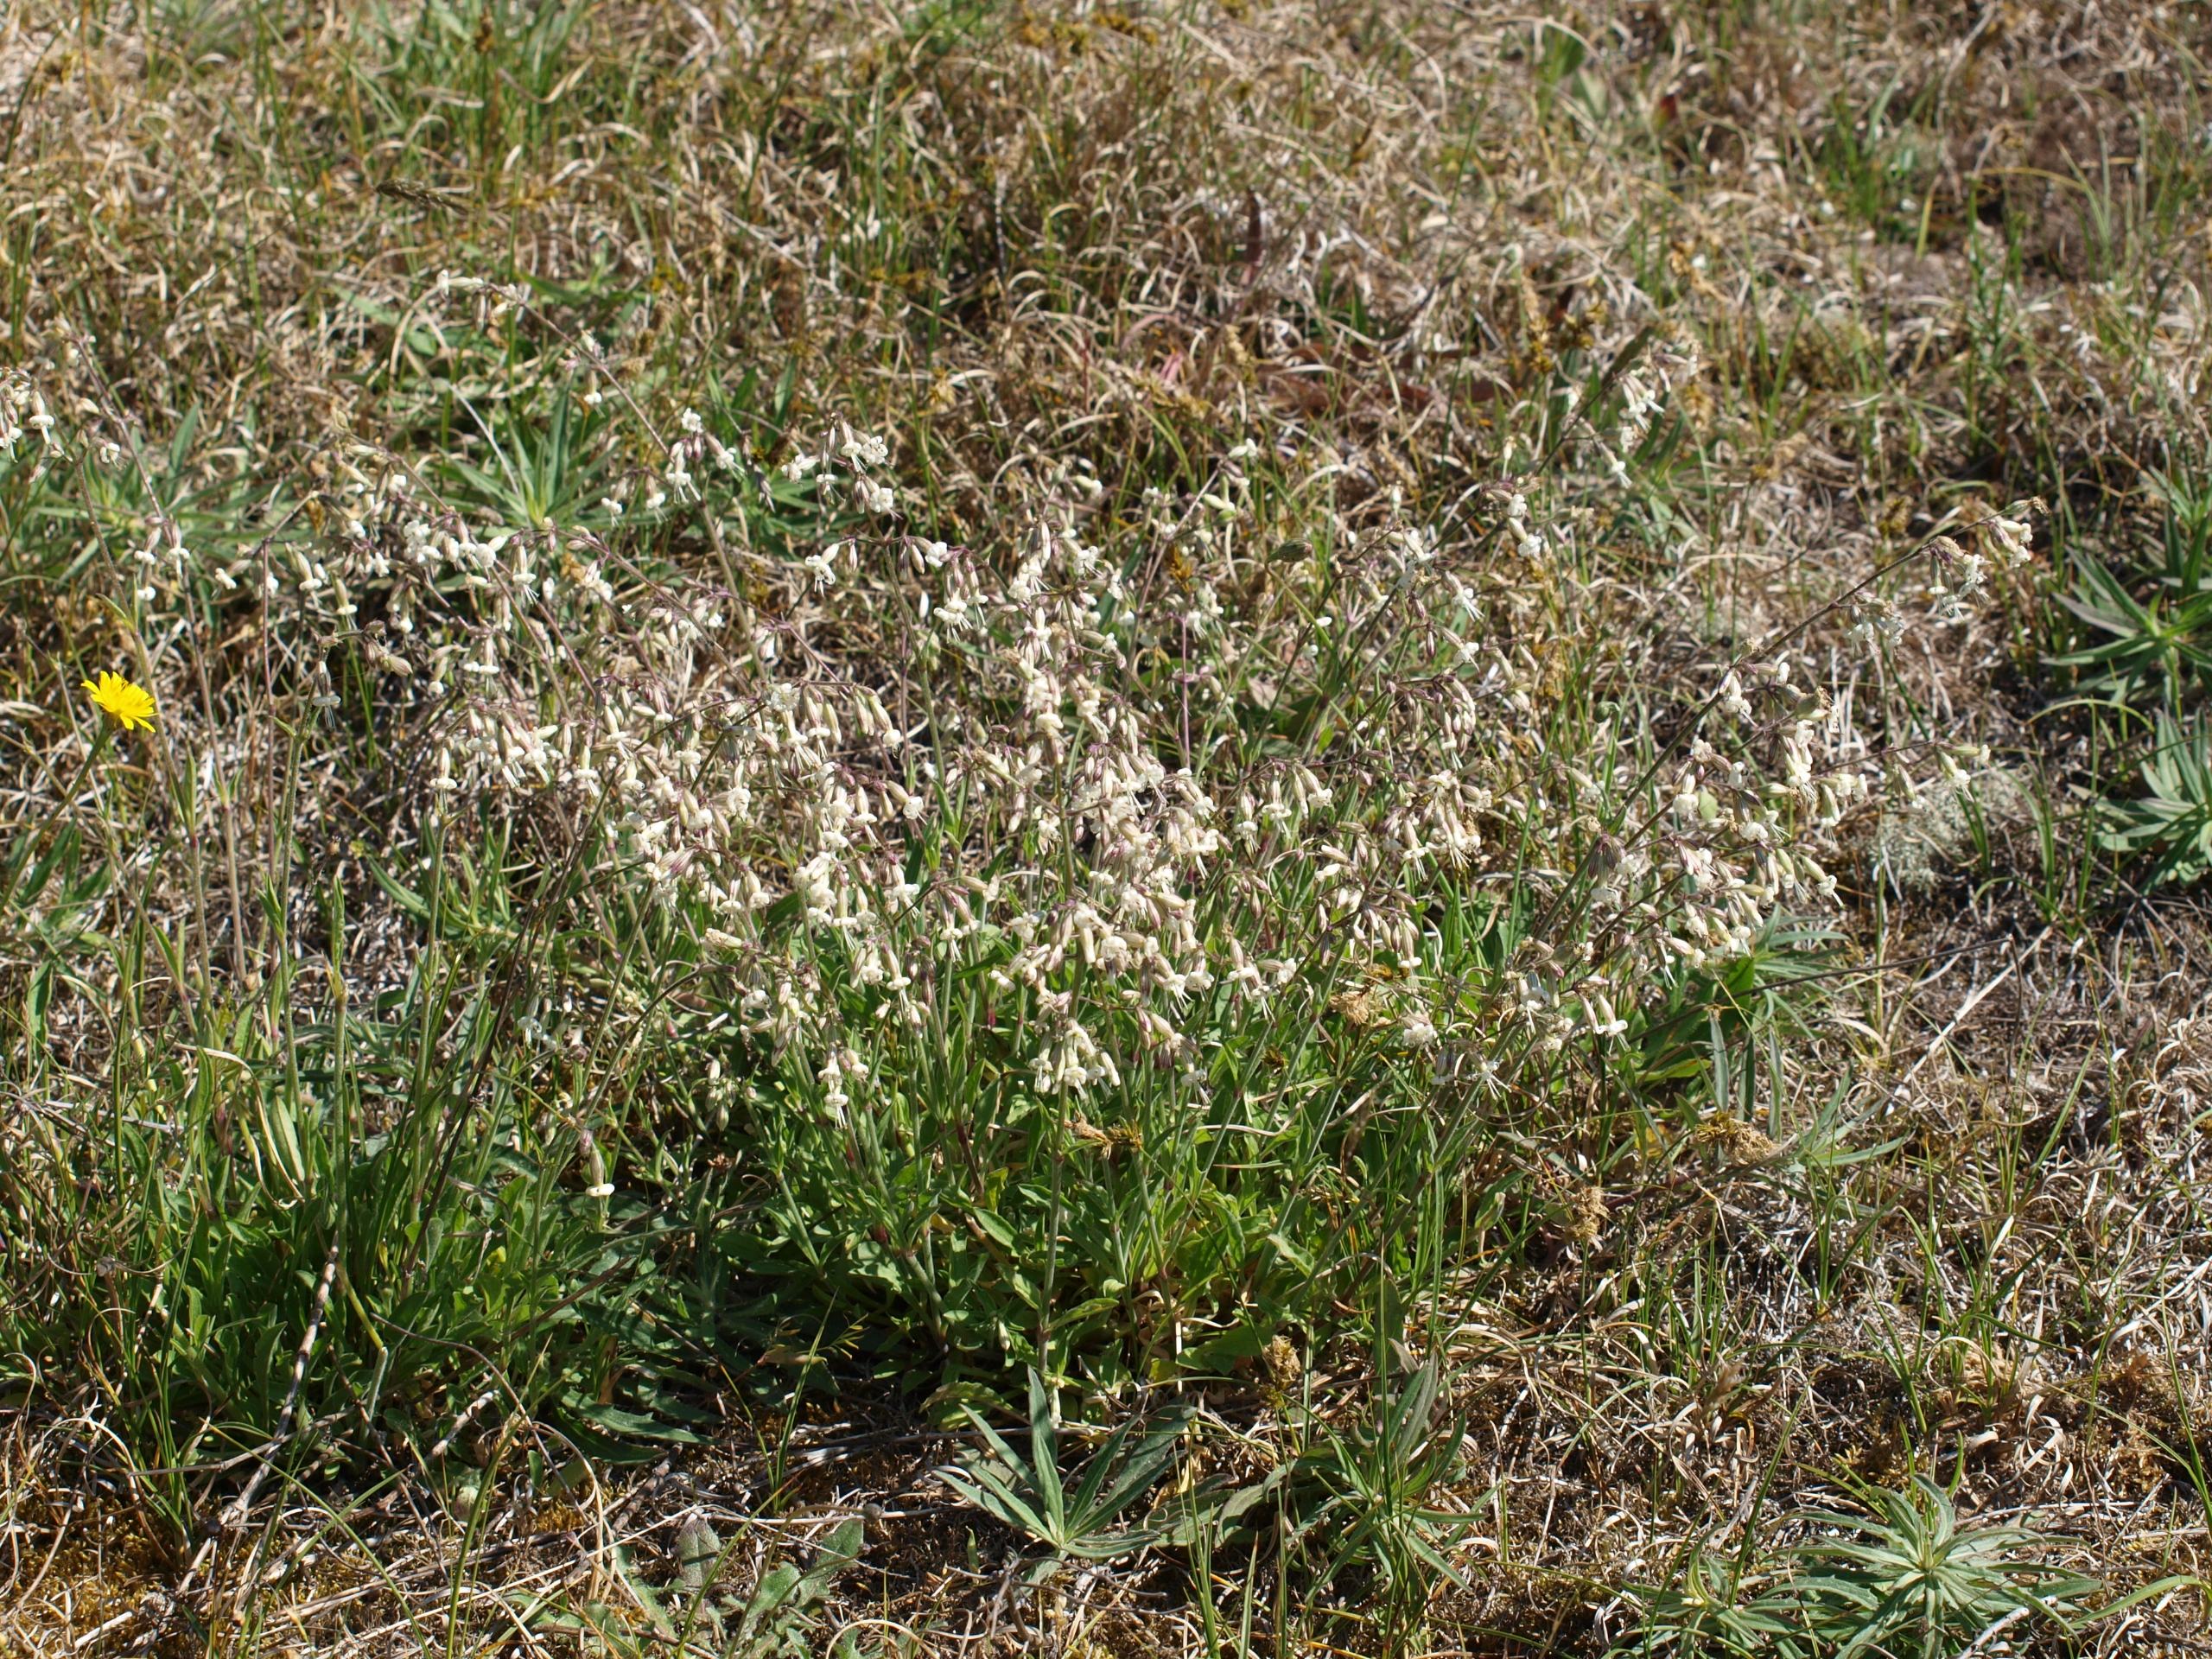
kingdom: Plantae
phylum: Tracheophyta
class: Magnoliopsida
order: Caryophyllales
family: Caryophyllaceae
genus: Silene
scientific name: Silene nutans
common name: Nikkende limurt
